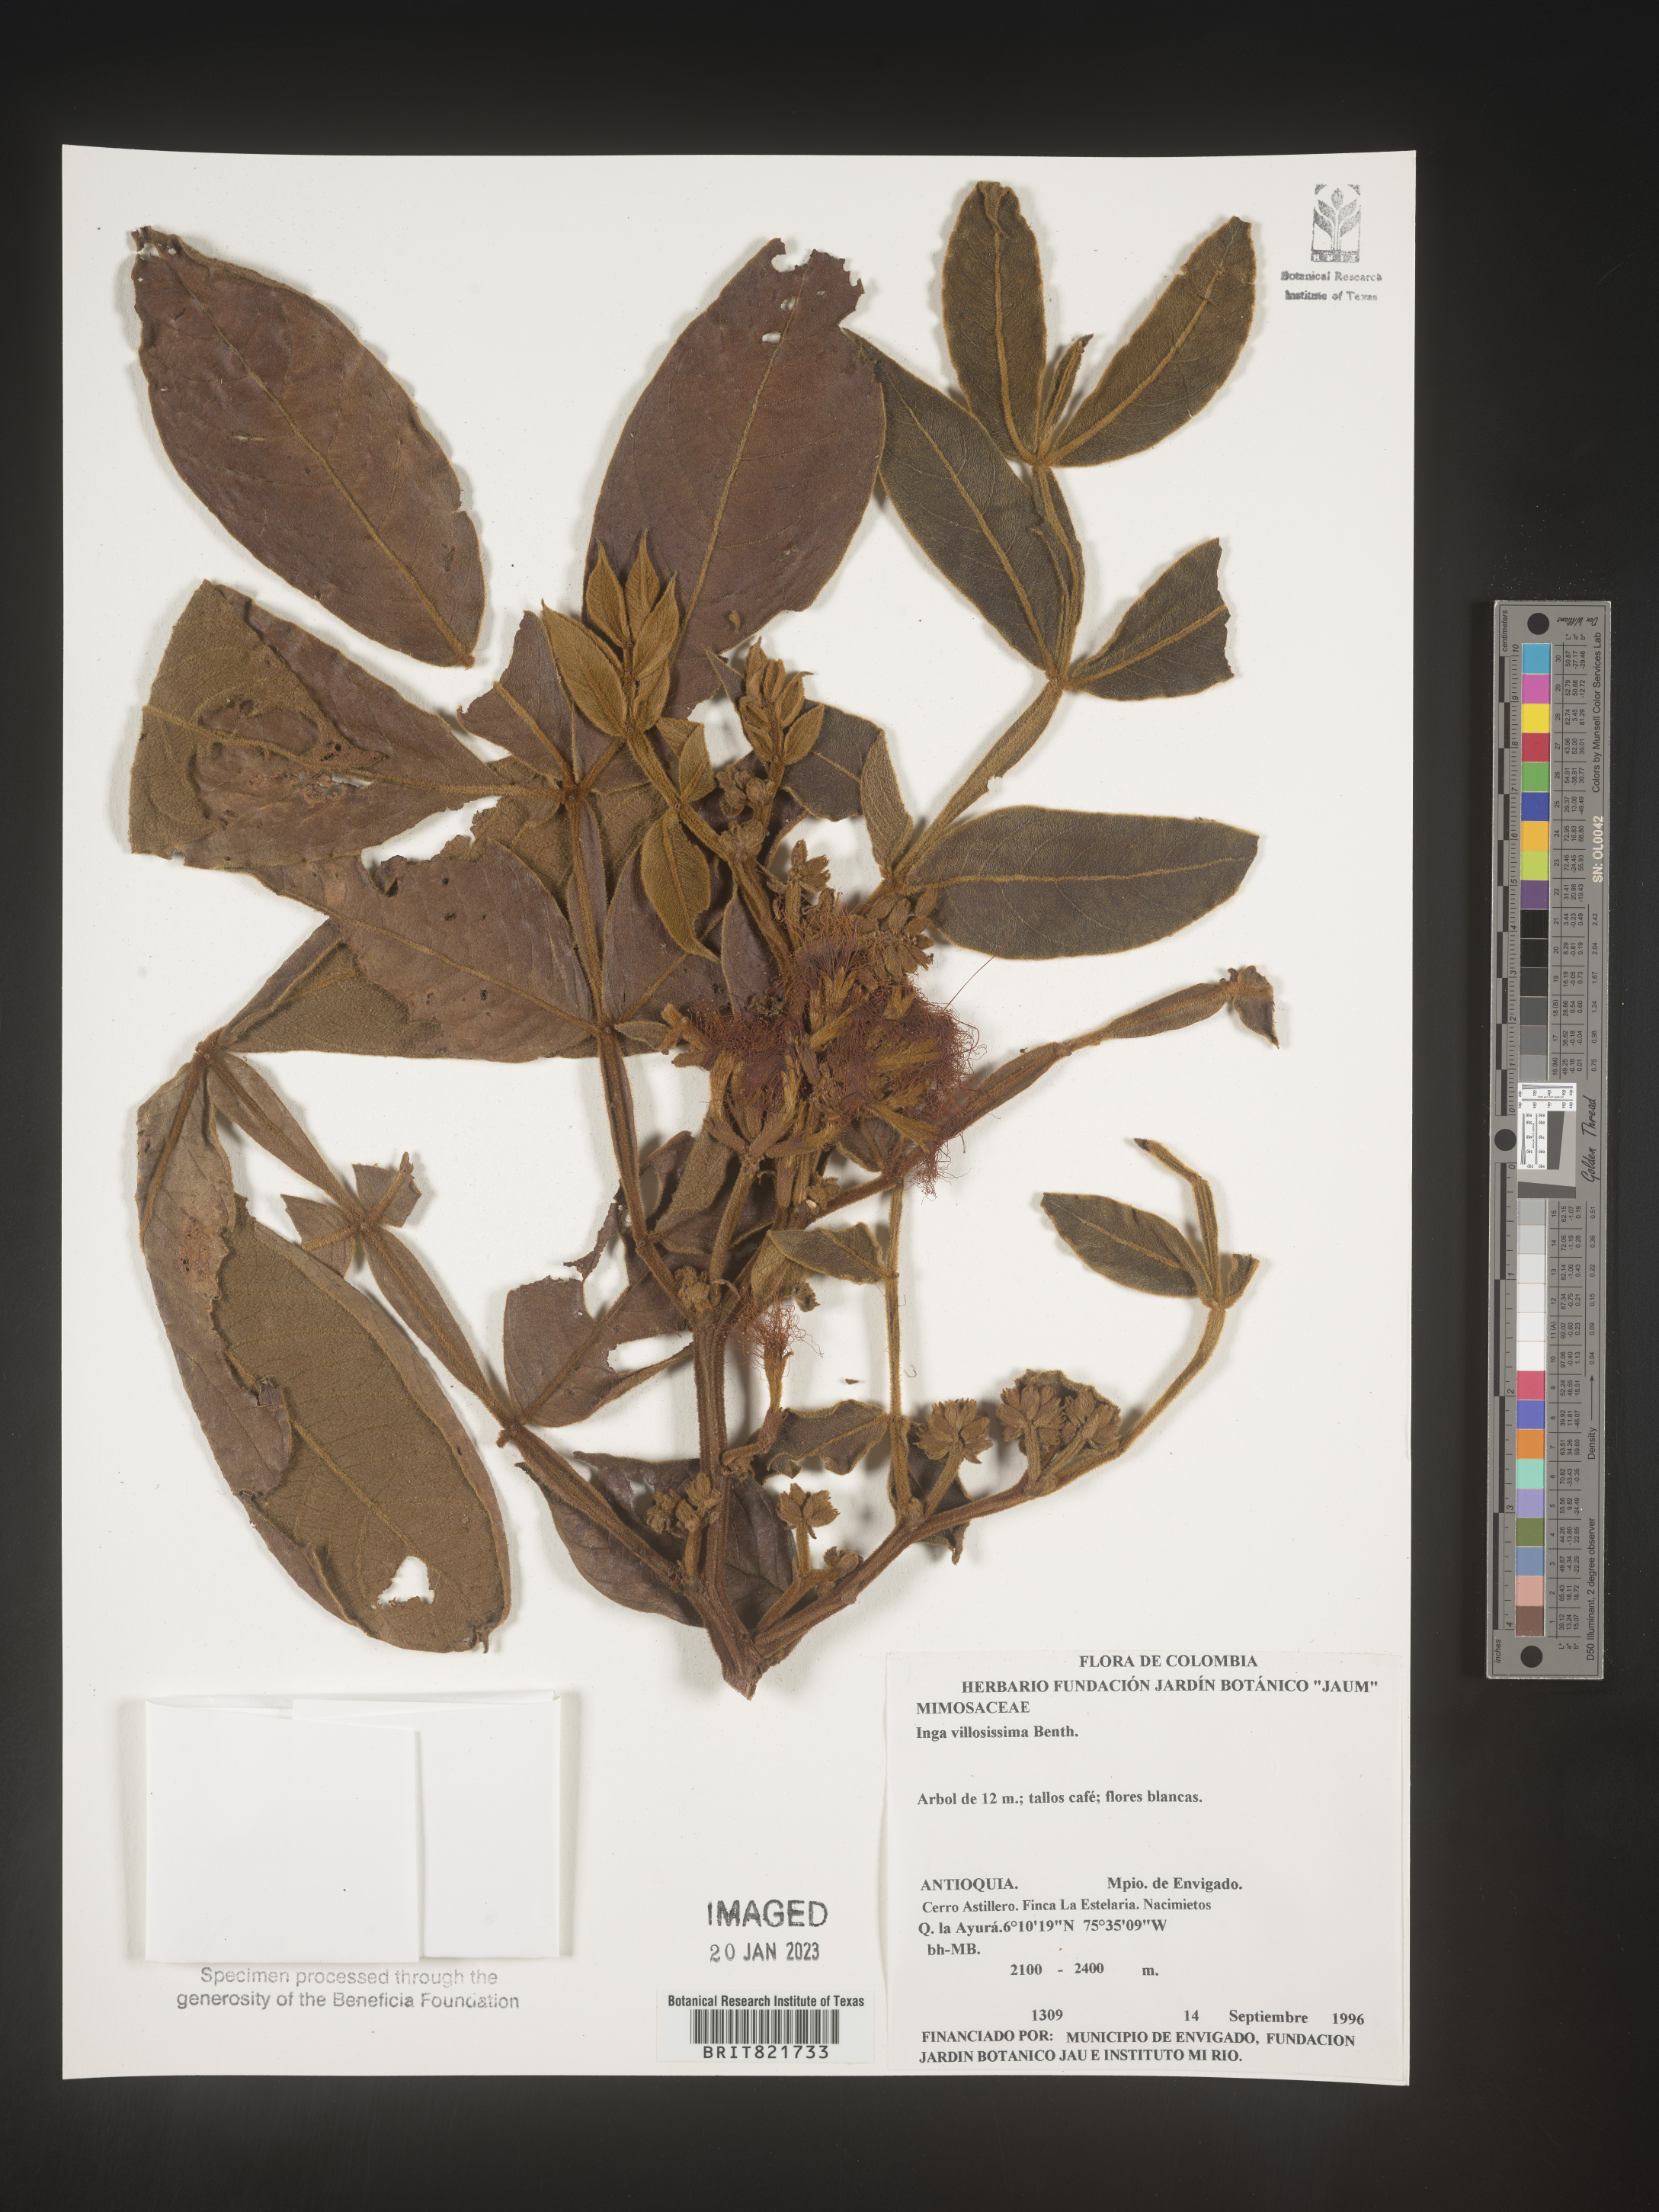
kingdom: Plantae
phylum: Tracheophyta
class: Magnoliopsida
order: Fabales
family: Fabaceae
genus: Inga
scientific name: Inga
